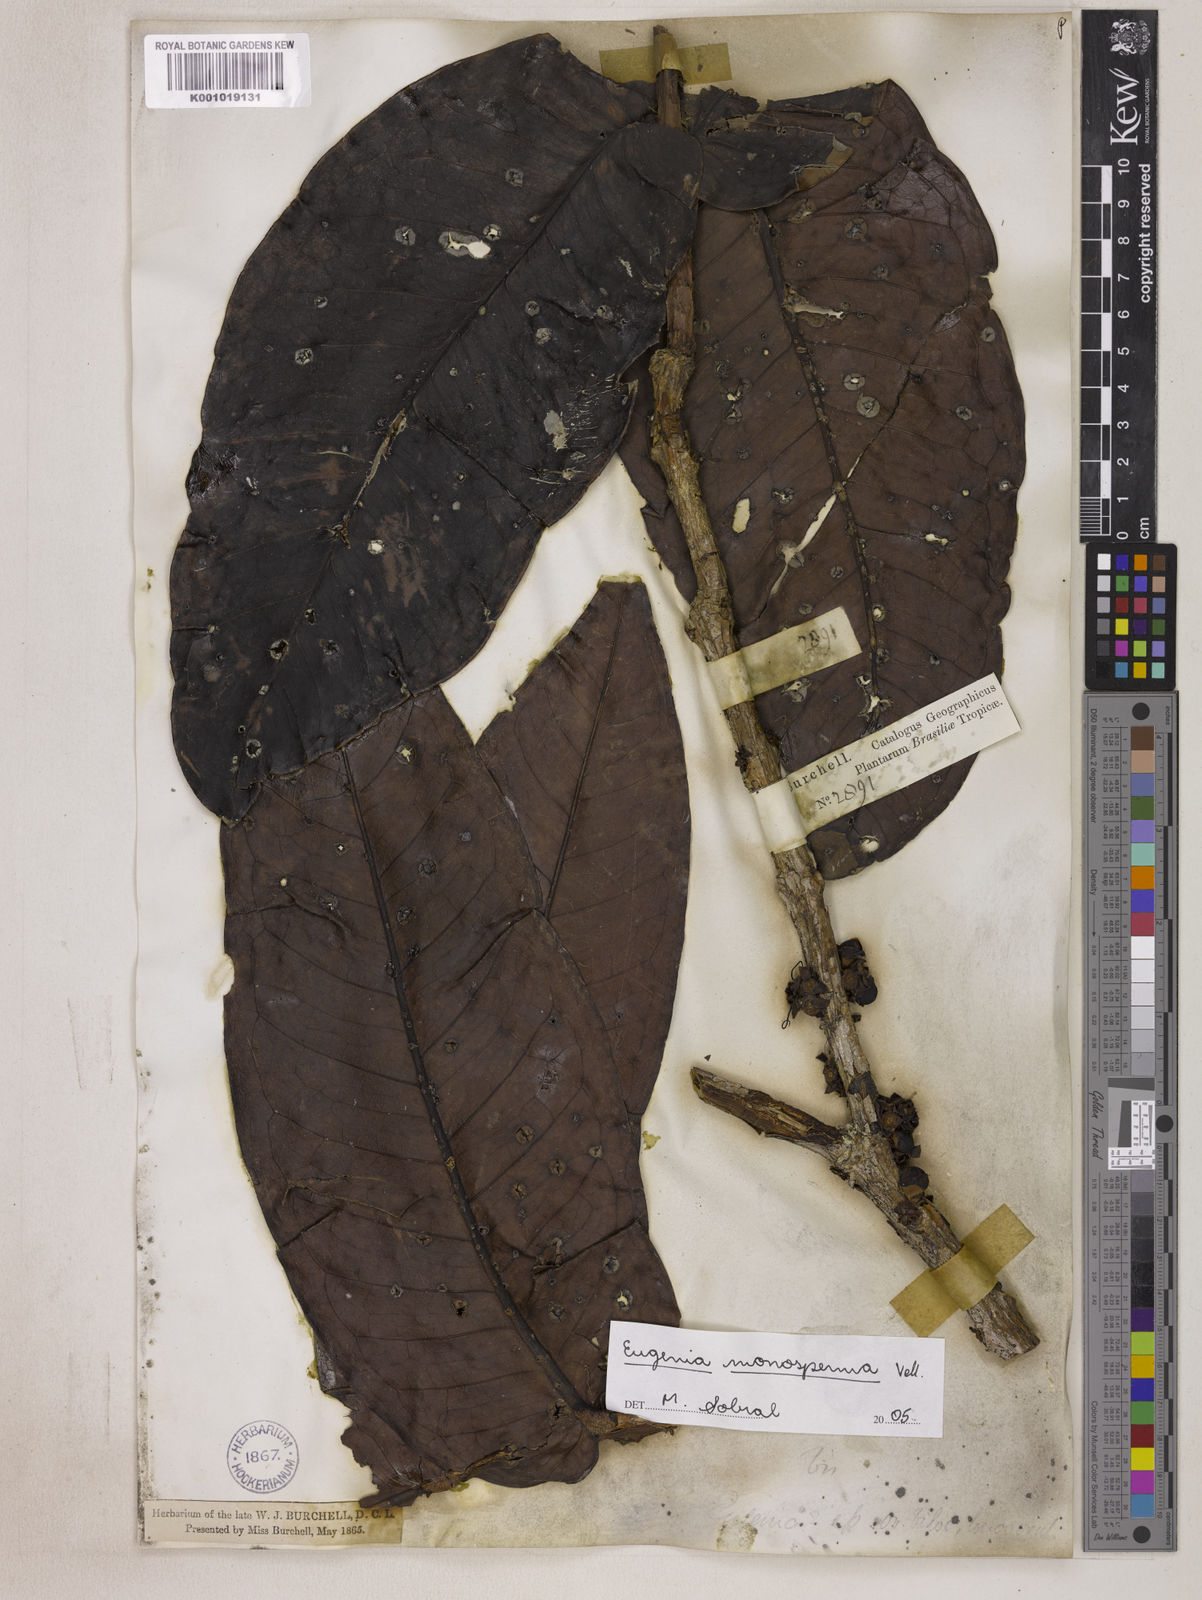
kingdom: Plantae
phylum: Tracheophyta
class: Magnoliopsida
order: Myrtales
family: Myrtaceae
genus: Eugenia
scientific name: Eugenia monosperma
